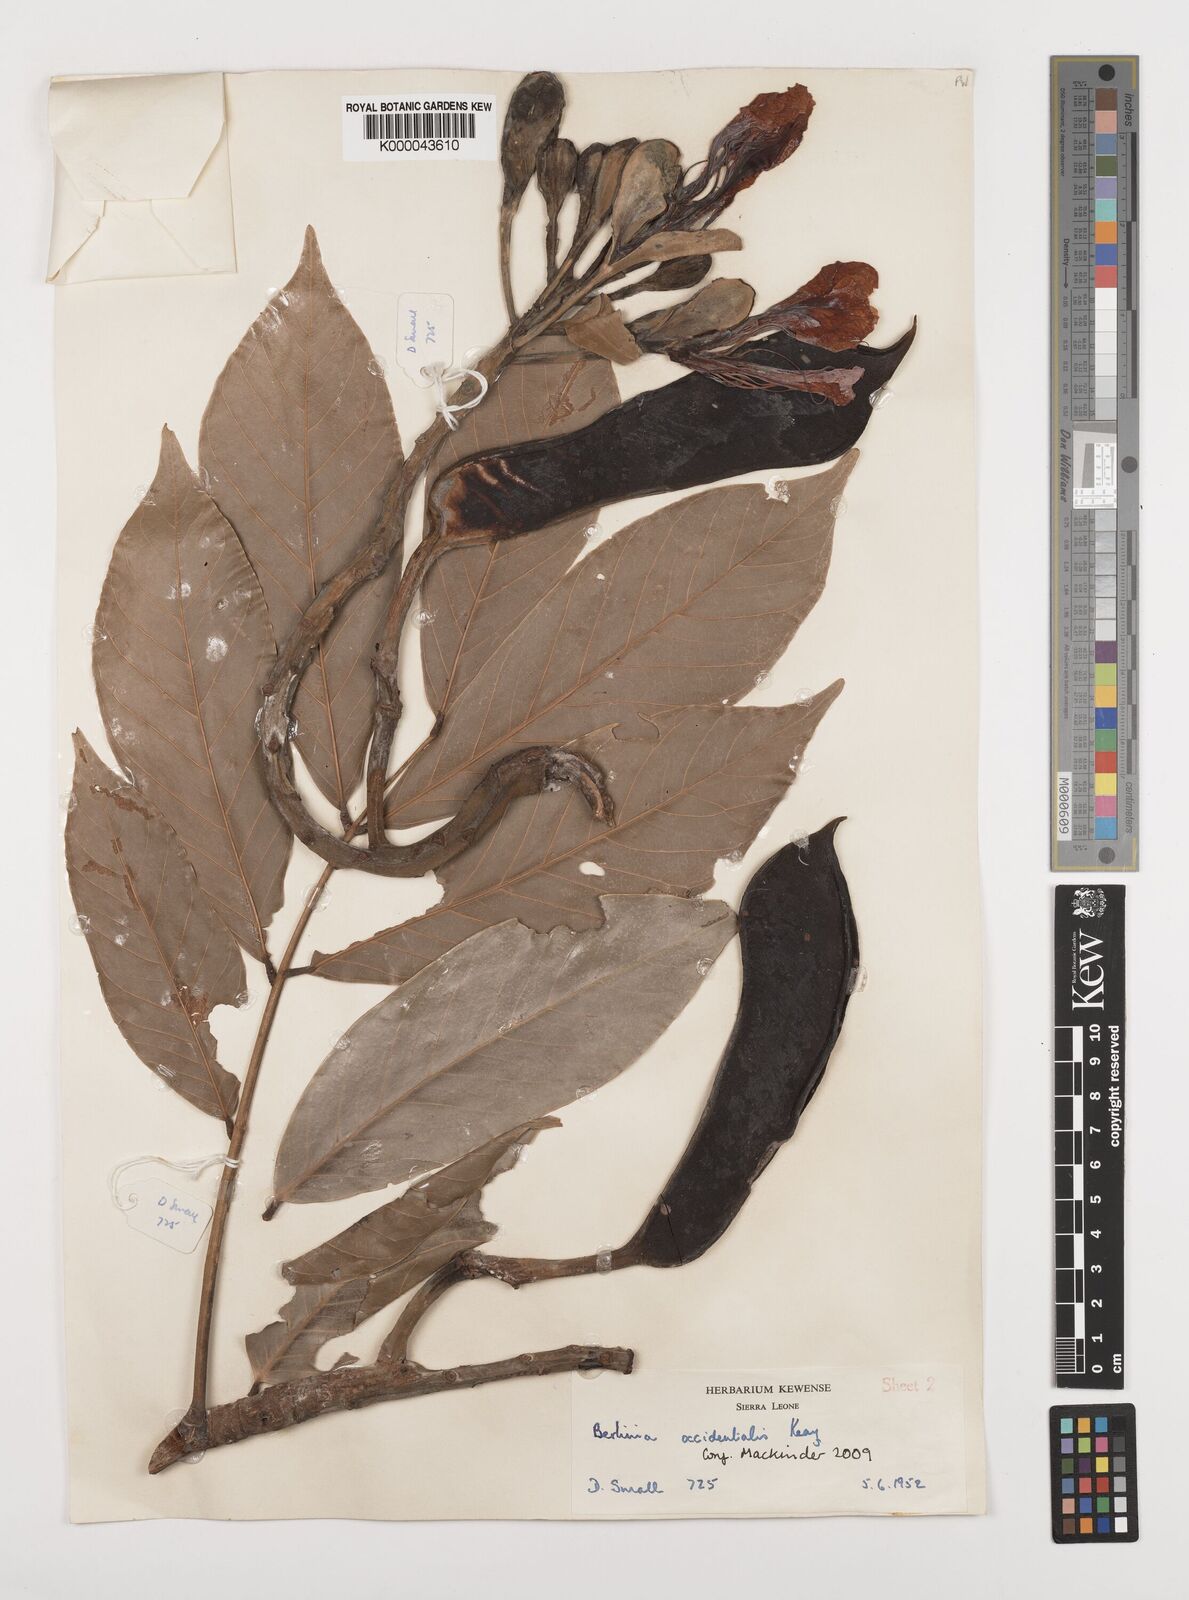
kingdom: Plantae
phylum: Tracheophyta
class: Magnoliopsida
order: Fabales
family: Fabaceae
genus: Berlinia
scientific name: Berlinia occidentalis
